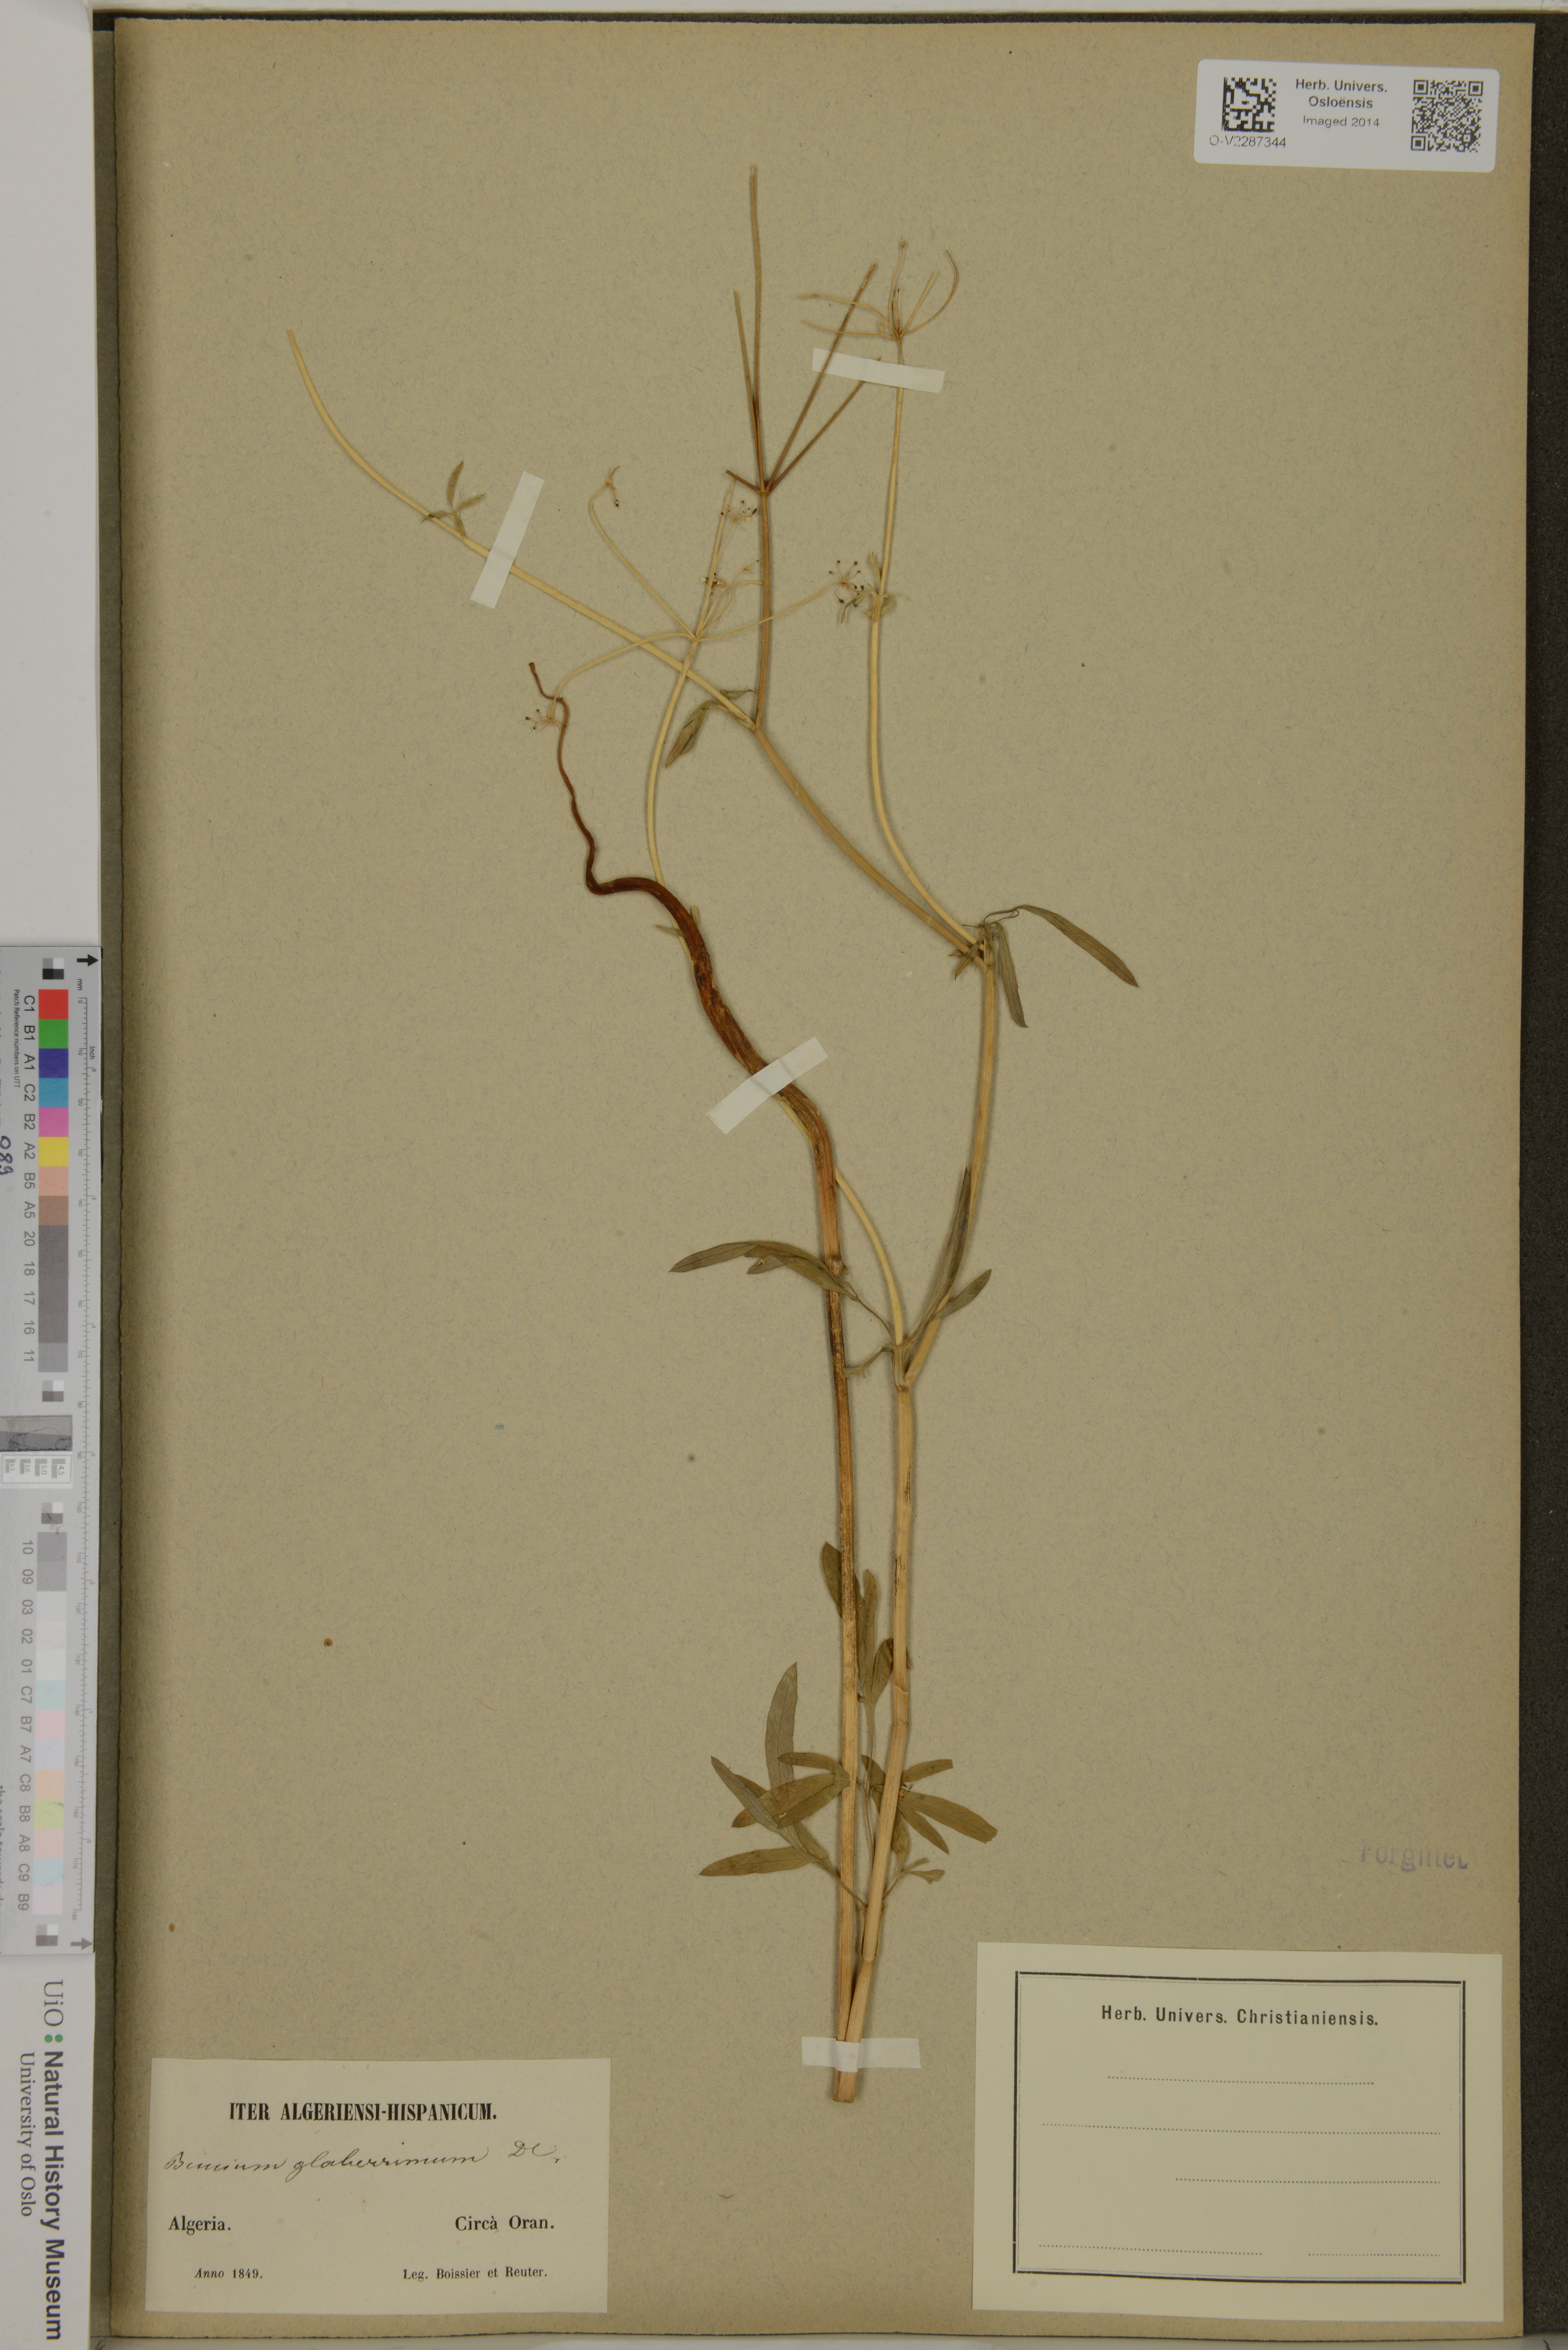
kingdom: Plantae
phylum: Tracheophyta
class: Magnoliopsida
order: Apiales
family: Apiaceae
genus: Conopodium
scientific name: Conopodium glaberrimum
